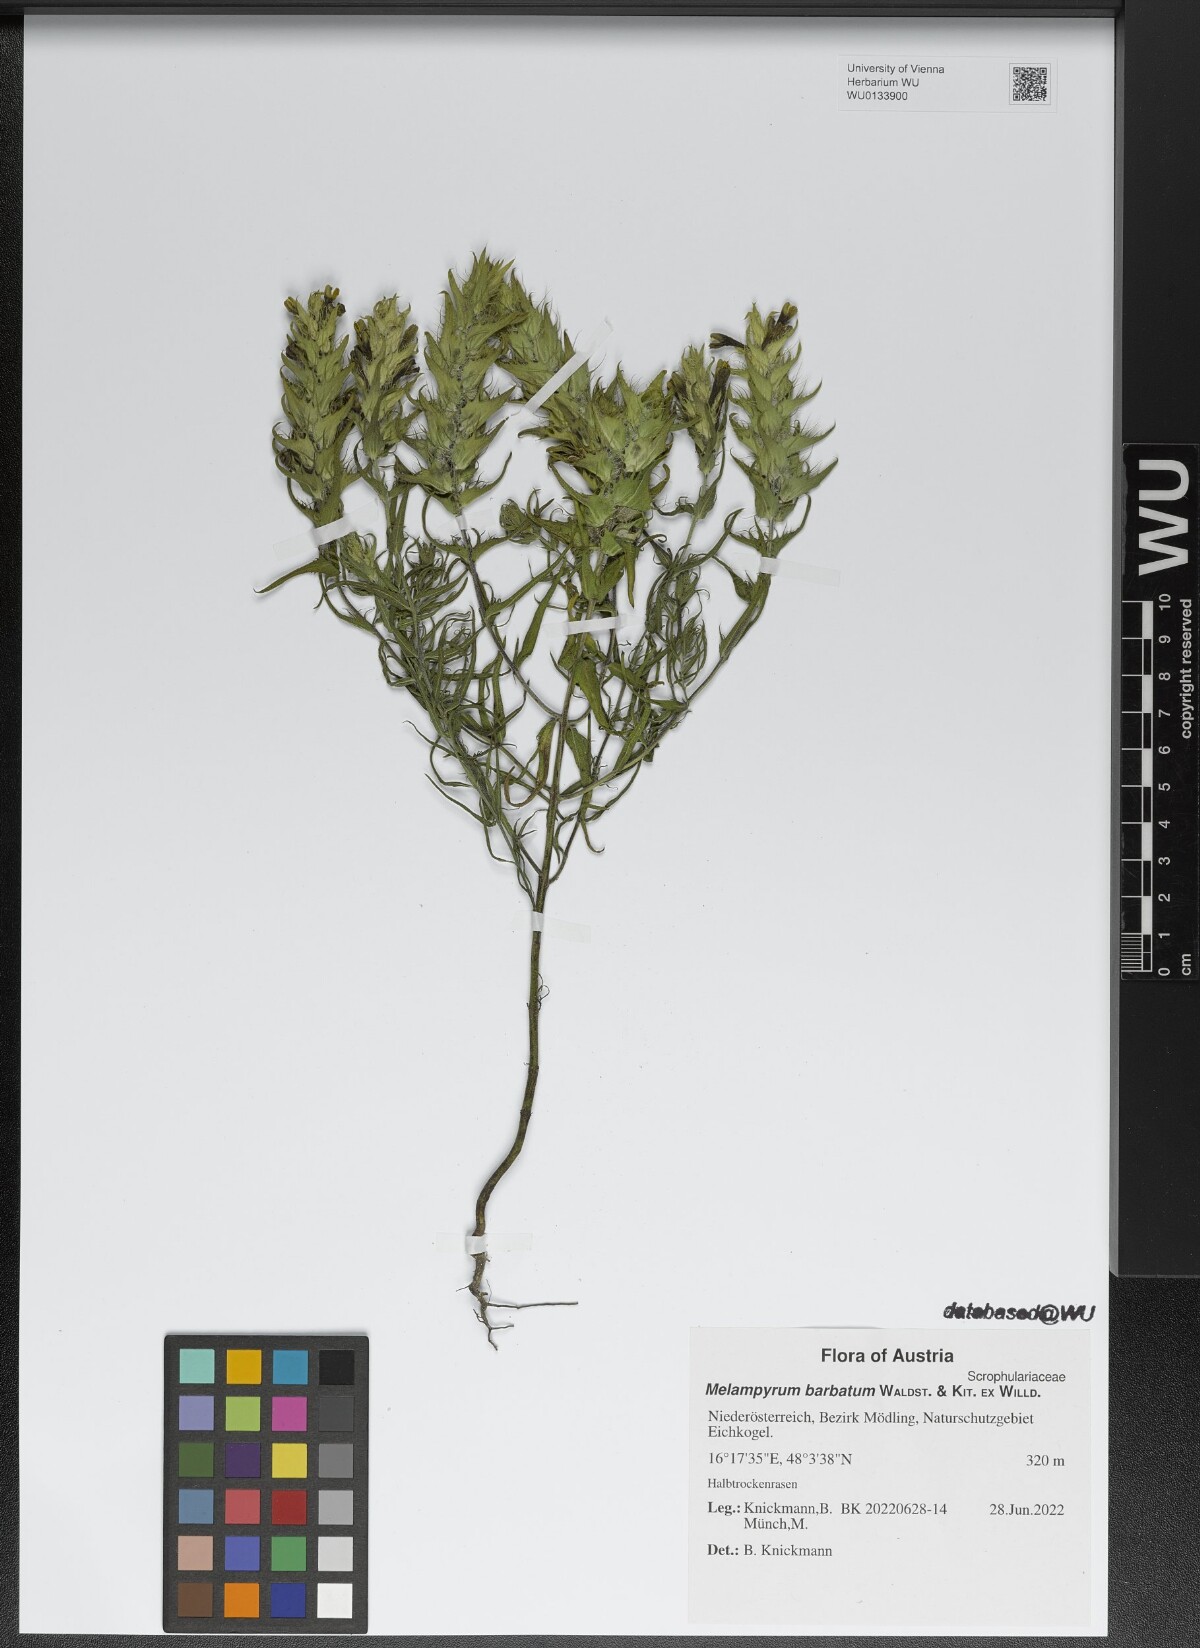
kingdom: Plantae
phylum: Tracheophyta
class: Magnoliopsida
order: Lamiales
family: Orobanchaceae
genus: Melampyrum
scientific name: Melampyrum barbatum
